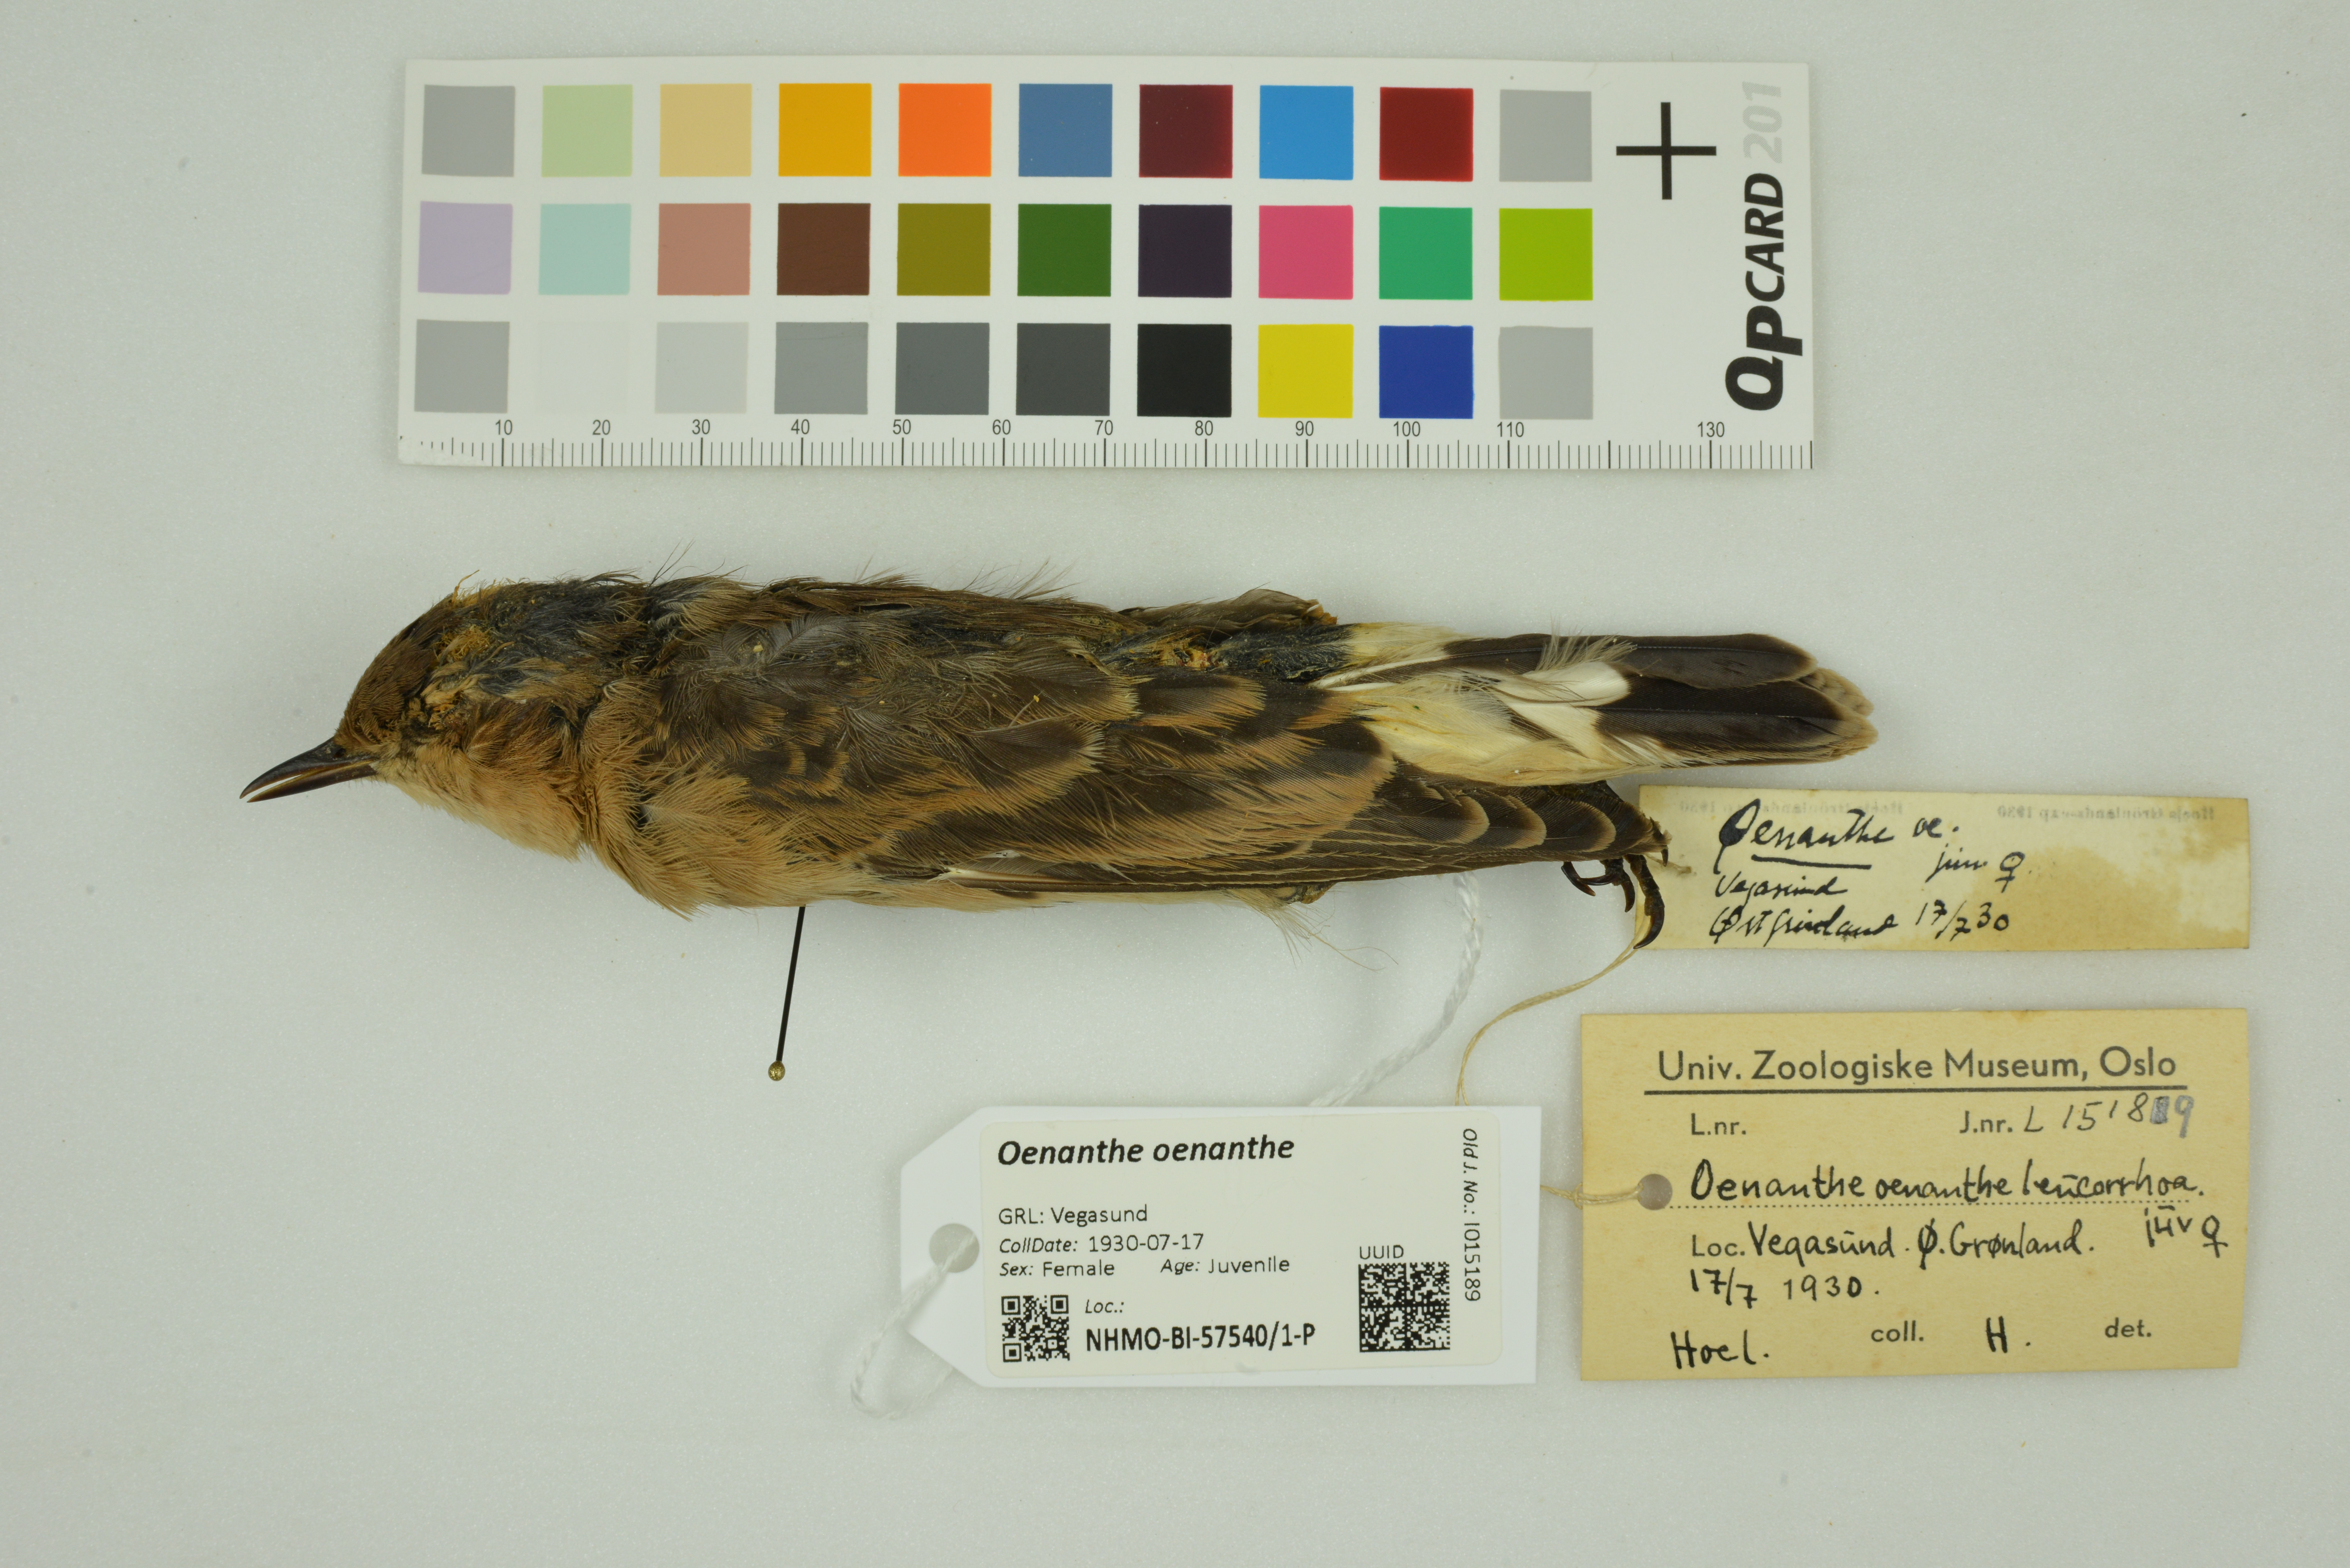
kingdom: Animalia
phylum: Chordata
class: Aves
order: Passeriformes
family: Muscicapidae
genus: Oenanthe
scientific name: Oenanthe oenanthe
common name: Northern wheatear
